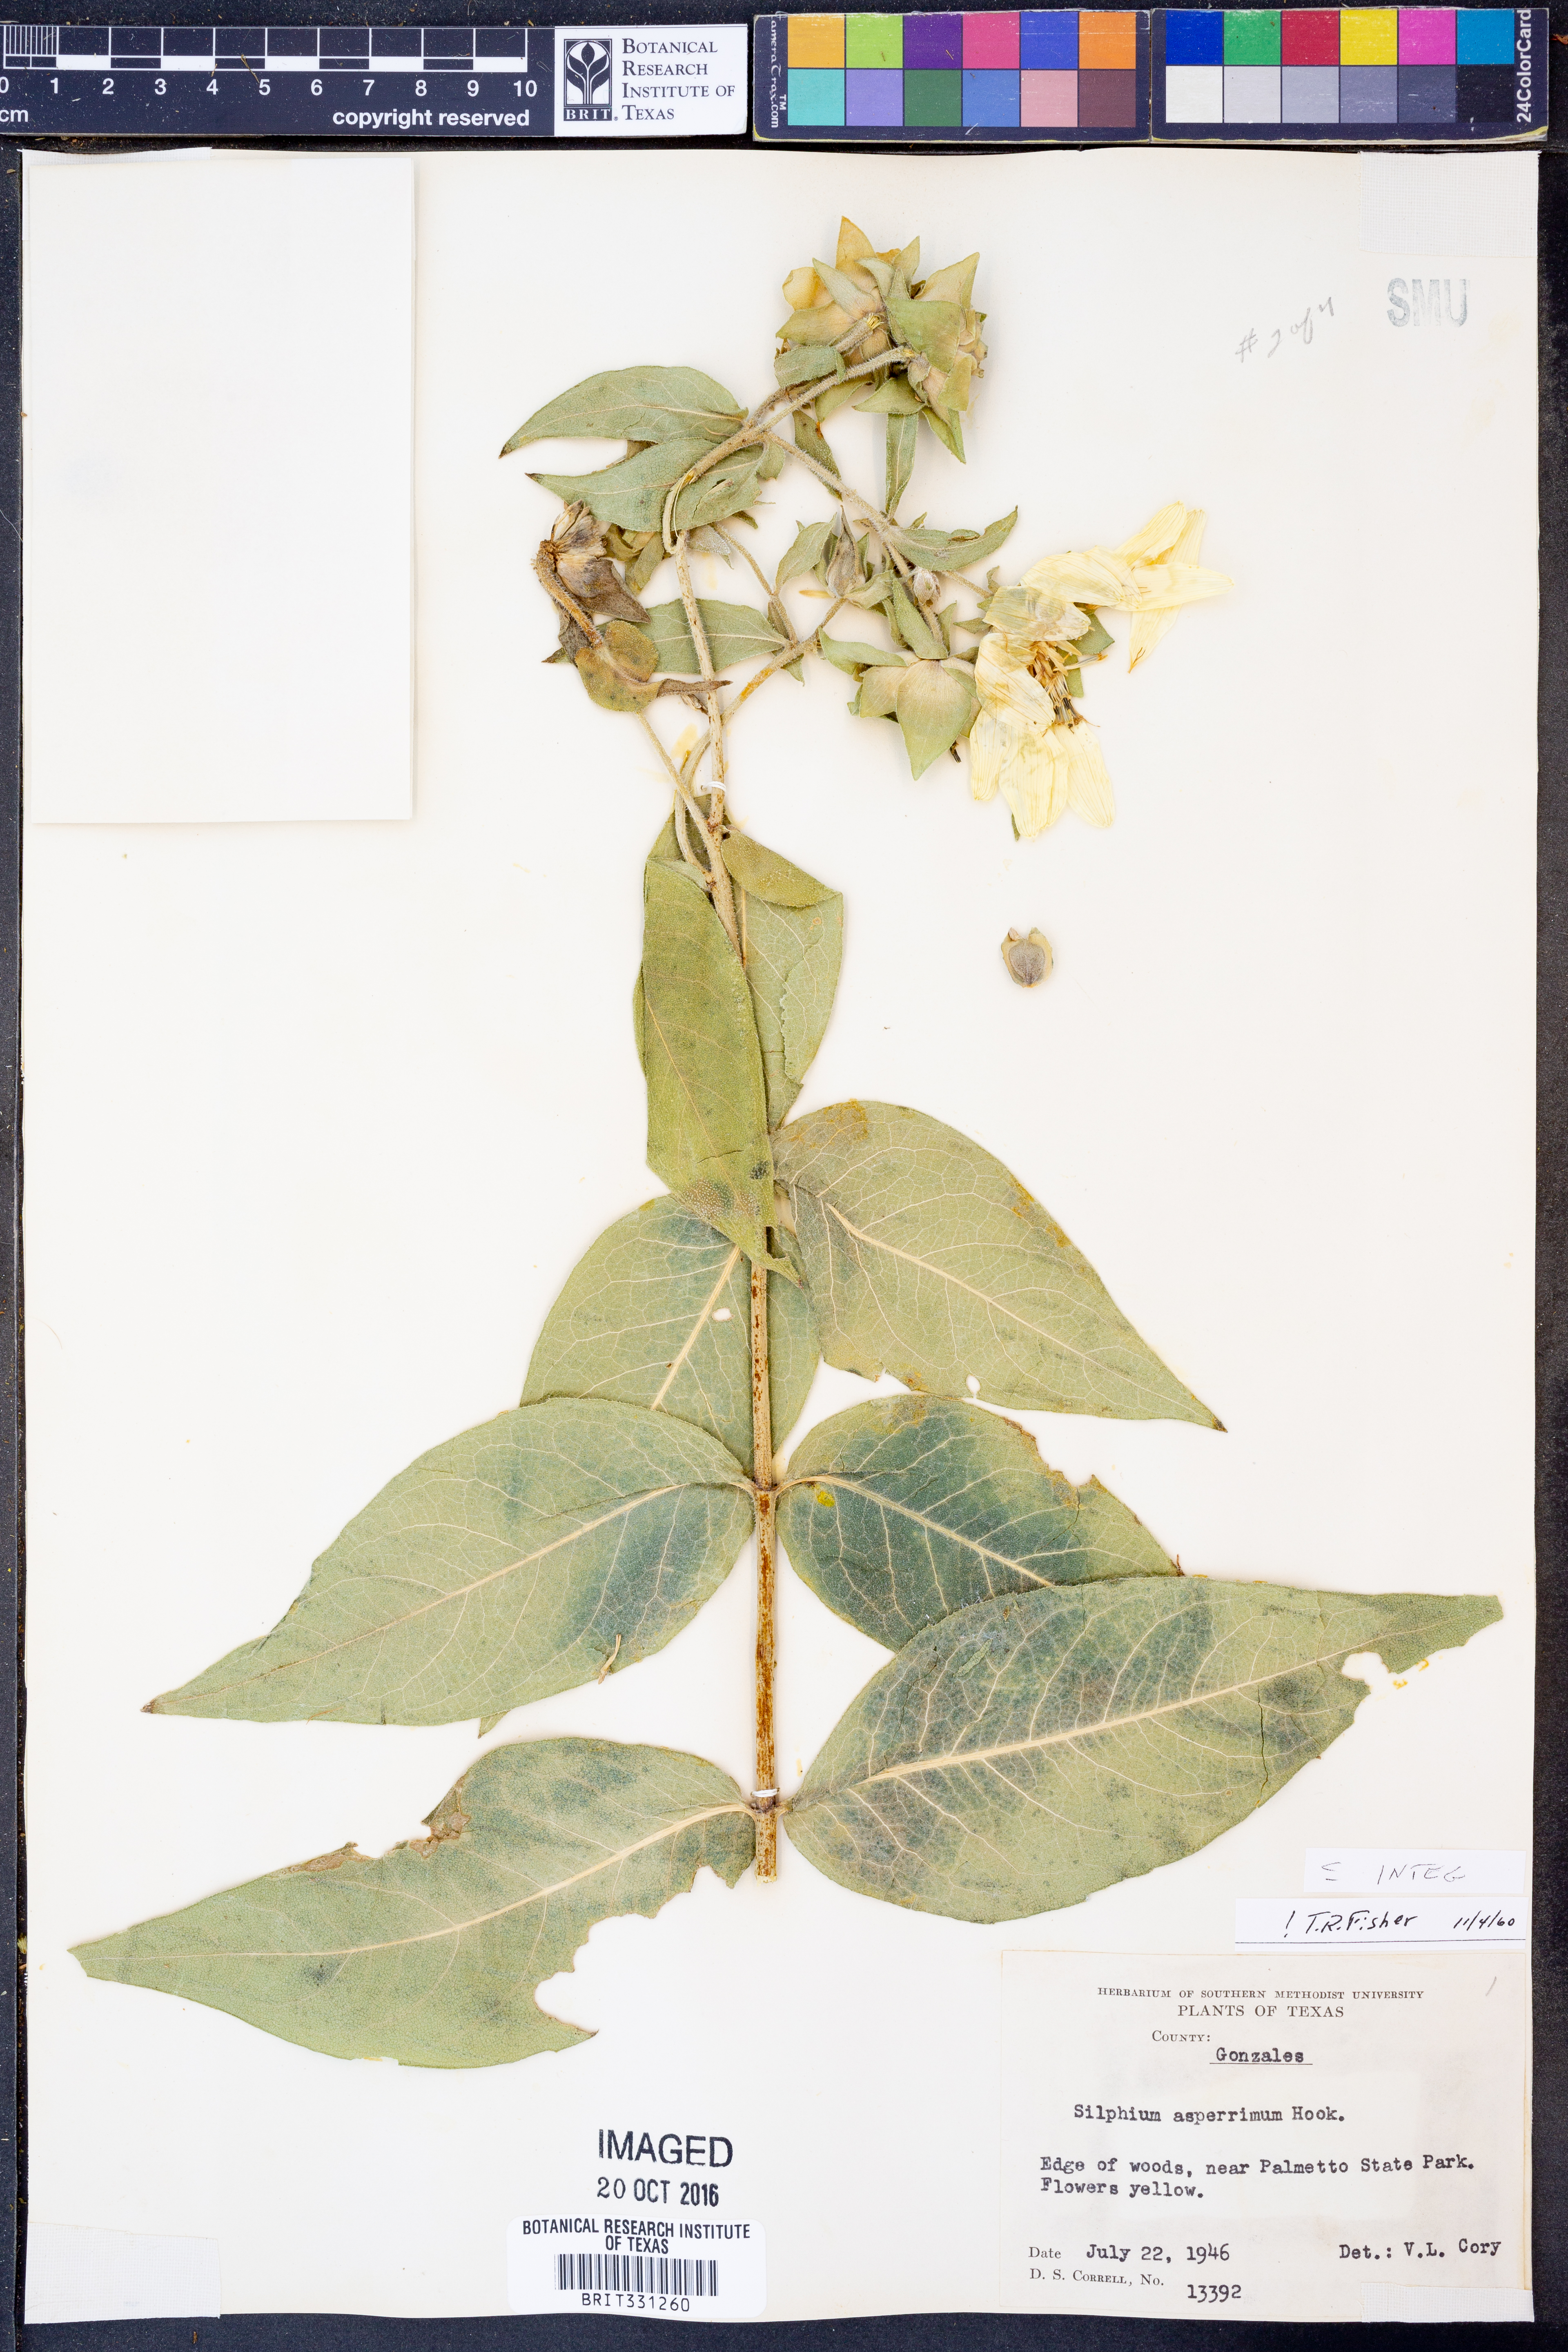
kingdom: Plantae
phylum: Tracheophyta
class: Magnoliopsida
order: Asterales
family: Asteraceae
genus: Silphium
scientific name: Silphium integrifolium
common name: Whole-leaf rosinweed
